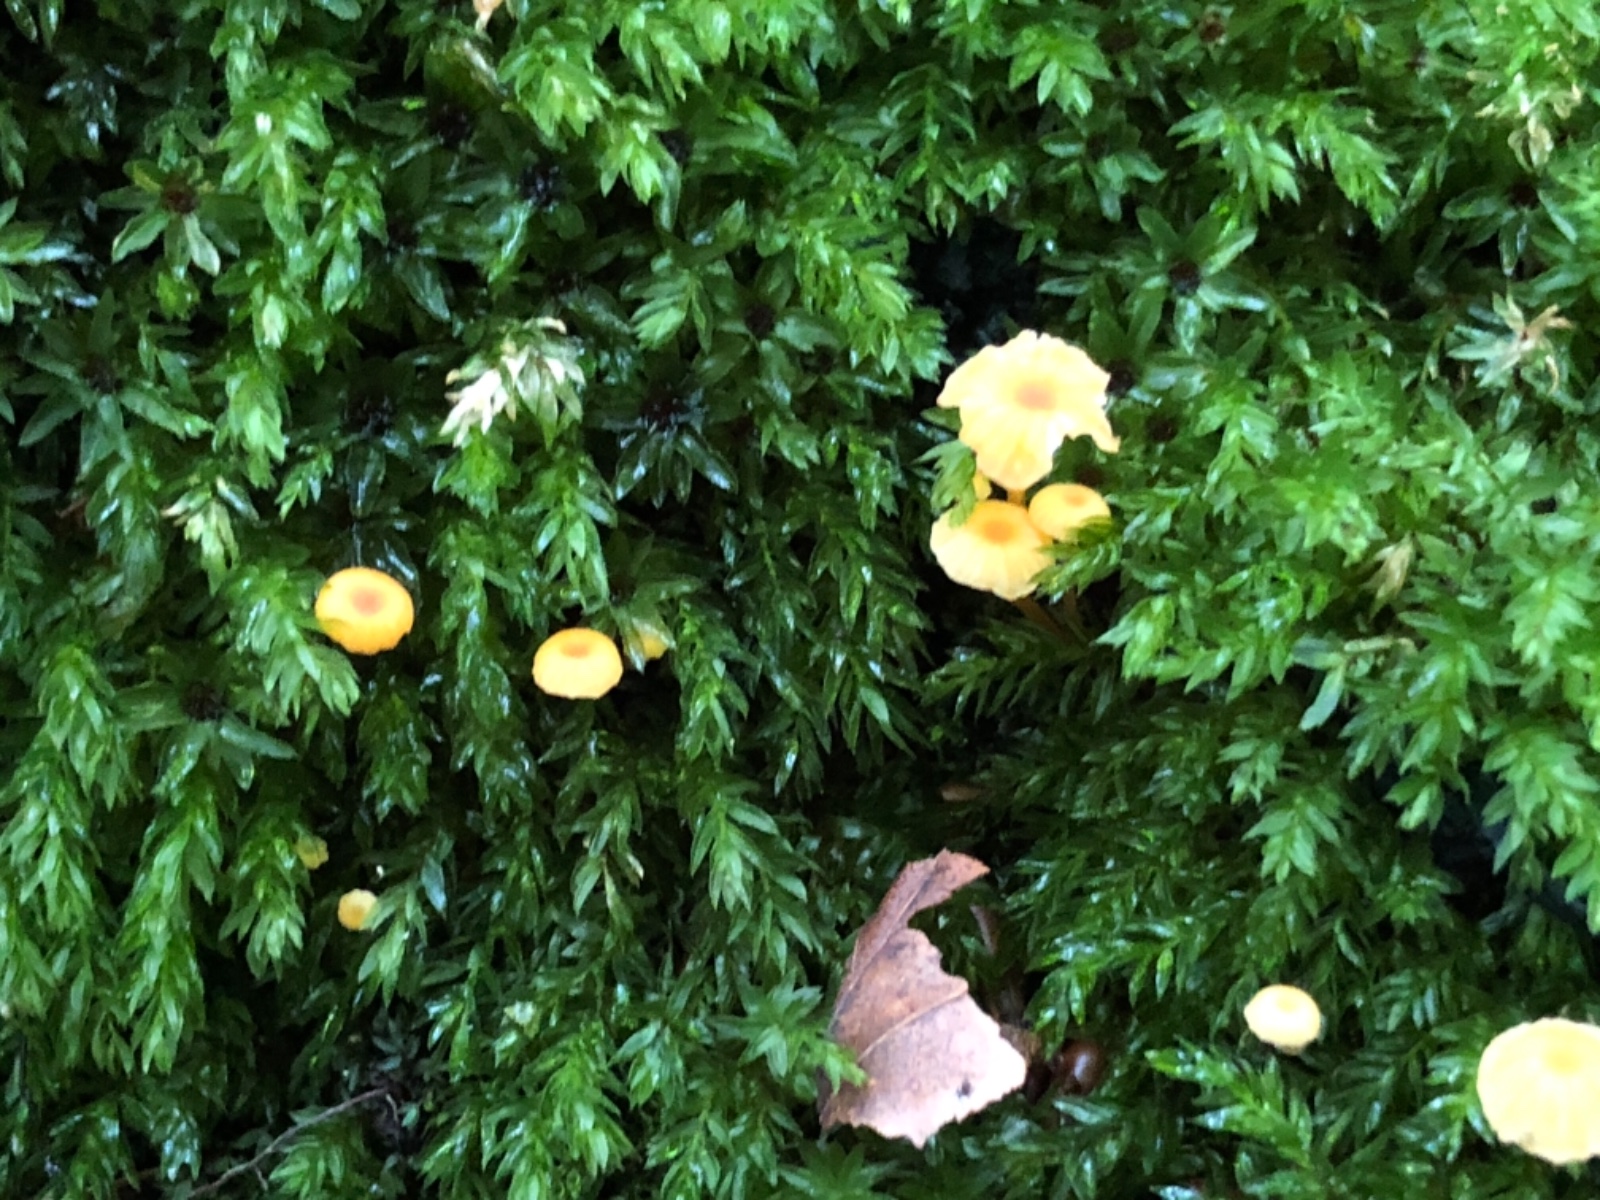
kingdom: Fungi
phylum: Basidiomycota
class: Agaricomycetes
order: Hymenochaetales
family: Rickenellaceae
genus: Rickenella
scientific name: Rickenella fibula
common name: orange mosnavlehat
